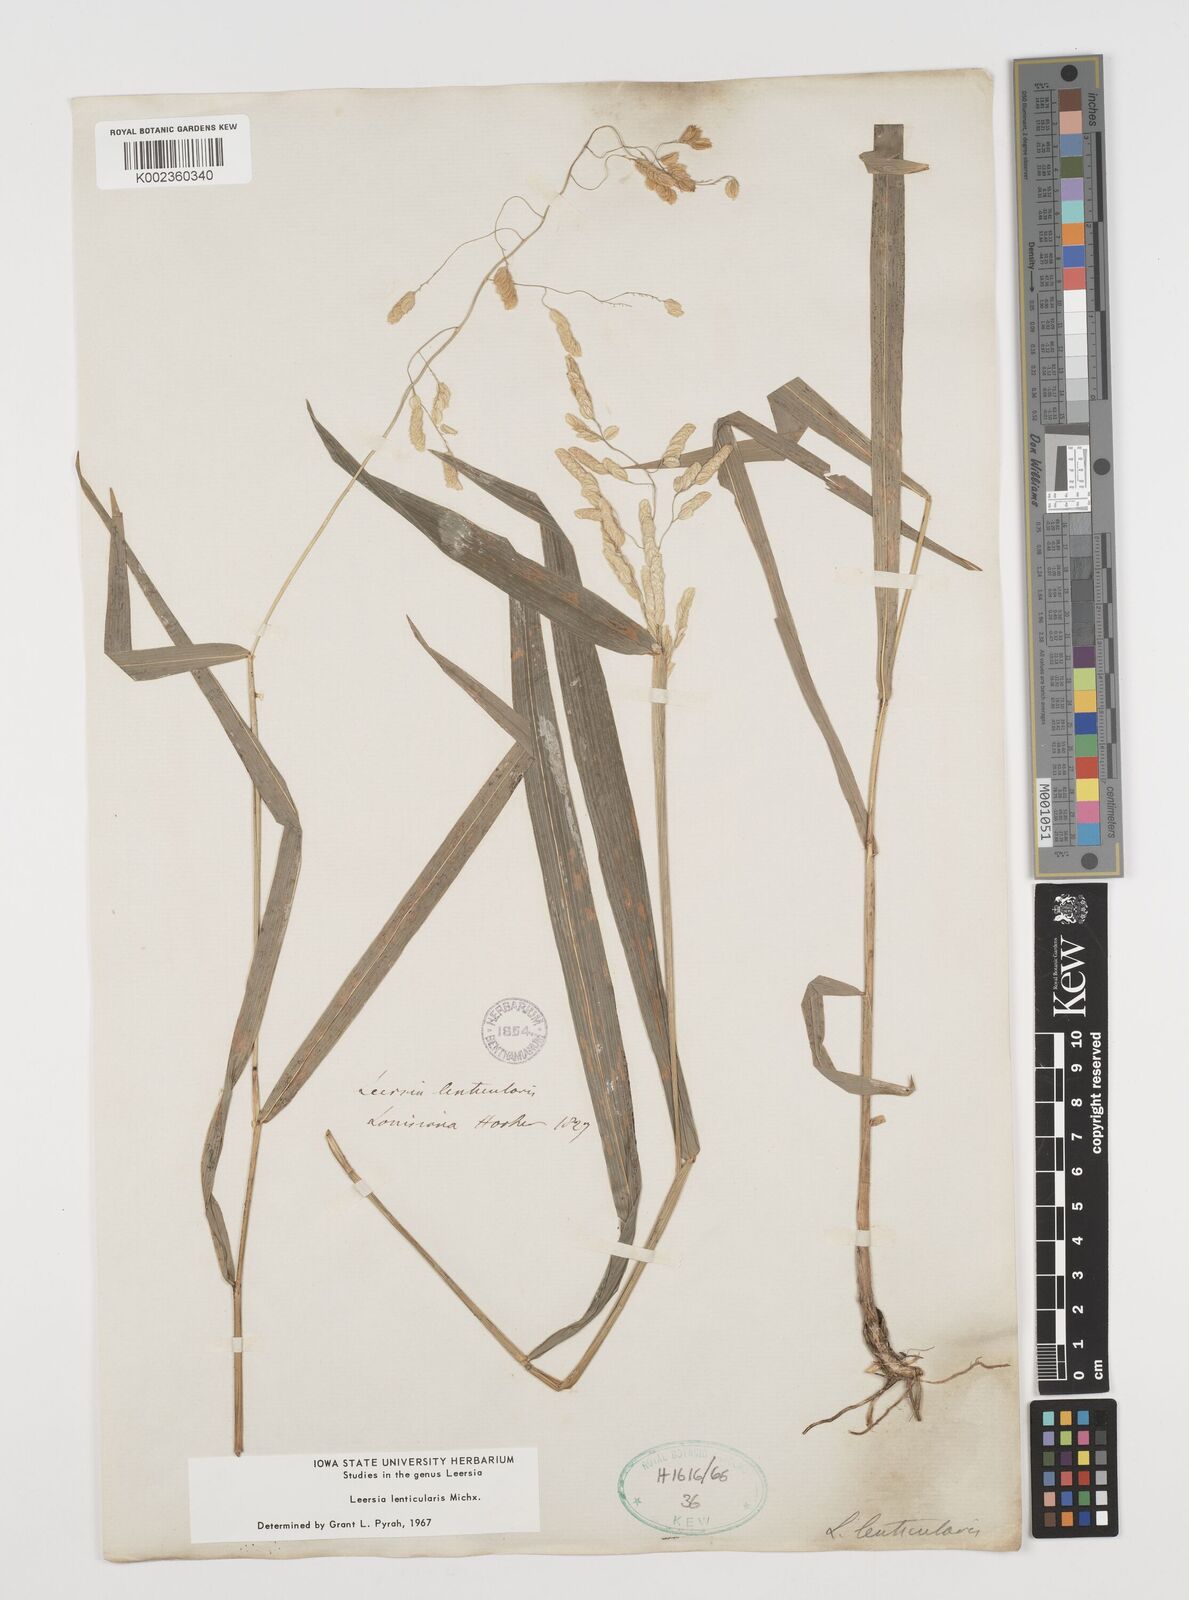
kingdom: Plantae
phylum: Tracheophyta
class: Liliopsida
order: Poales
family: Poaceae
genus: Leersia
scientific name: Leersia lenticularis
